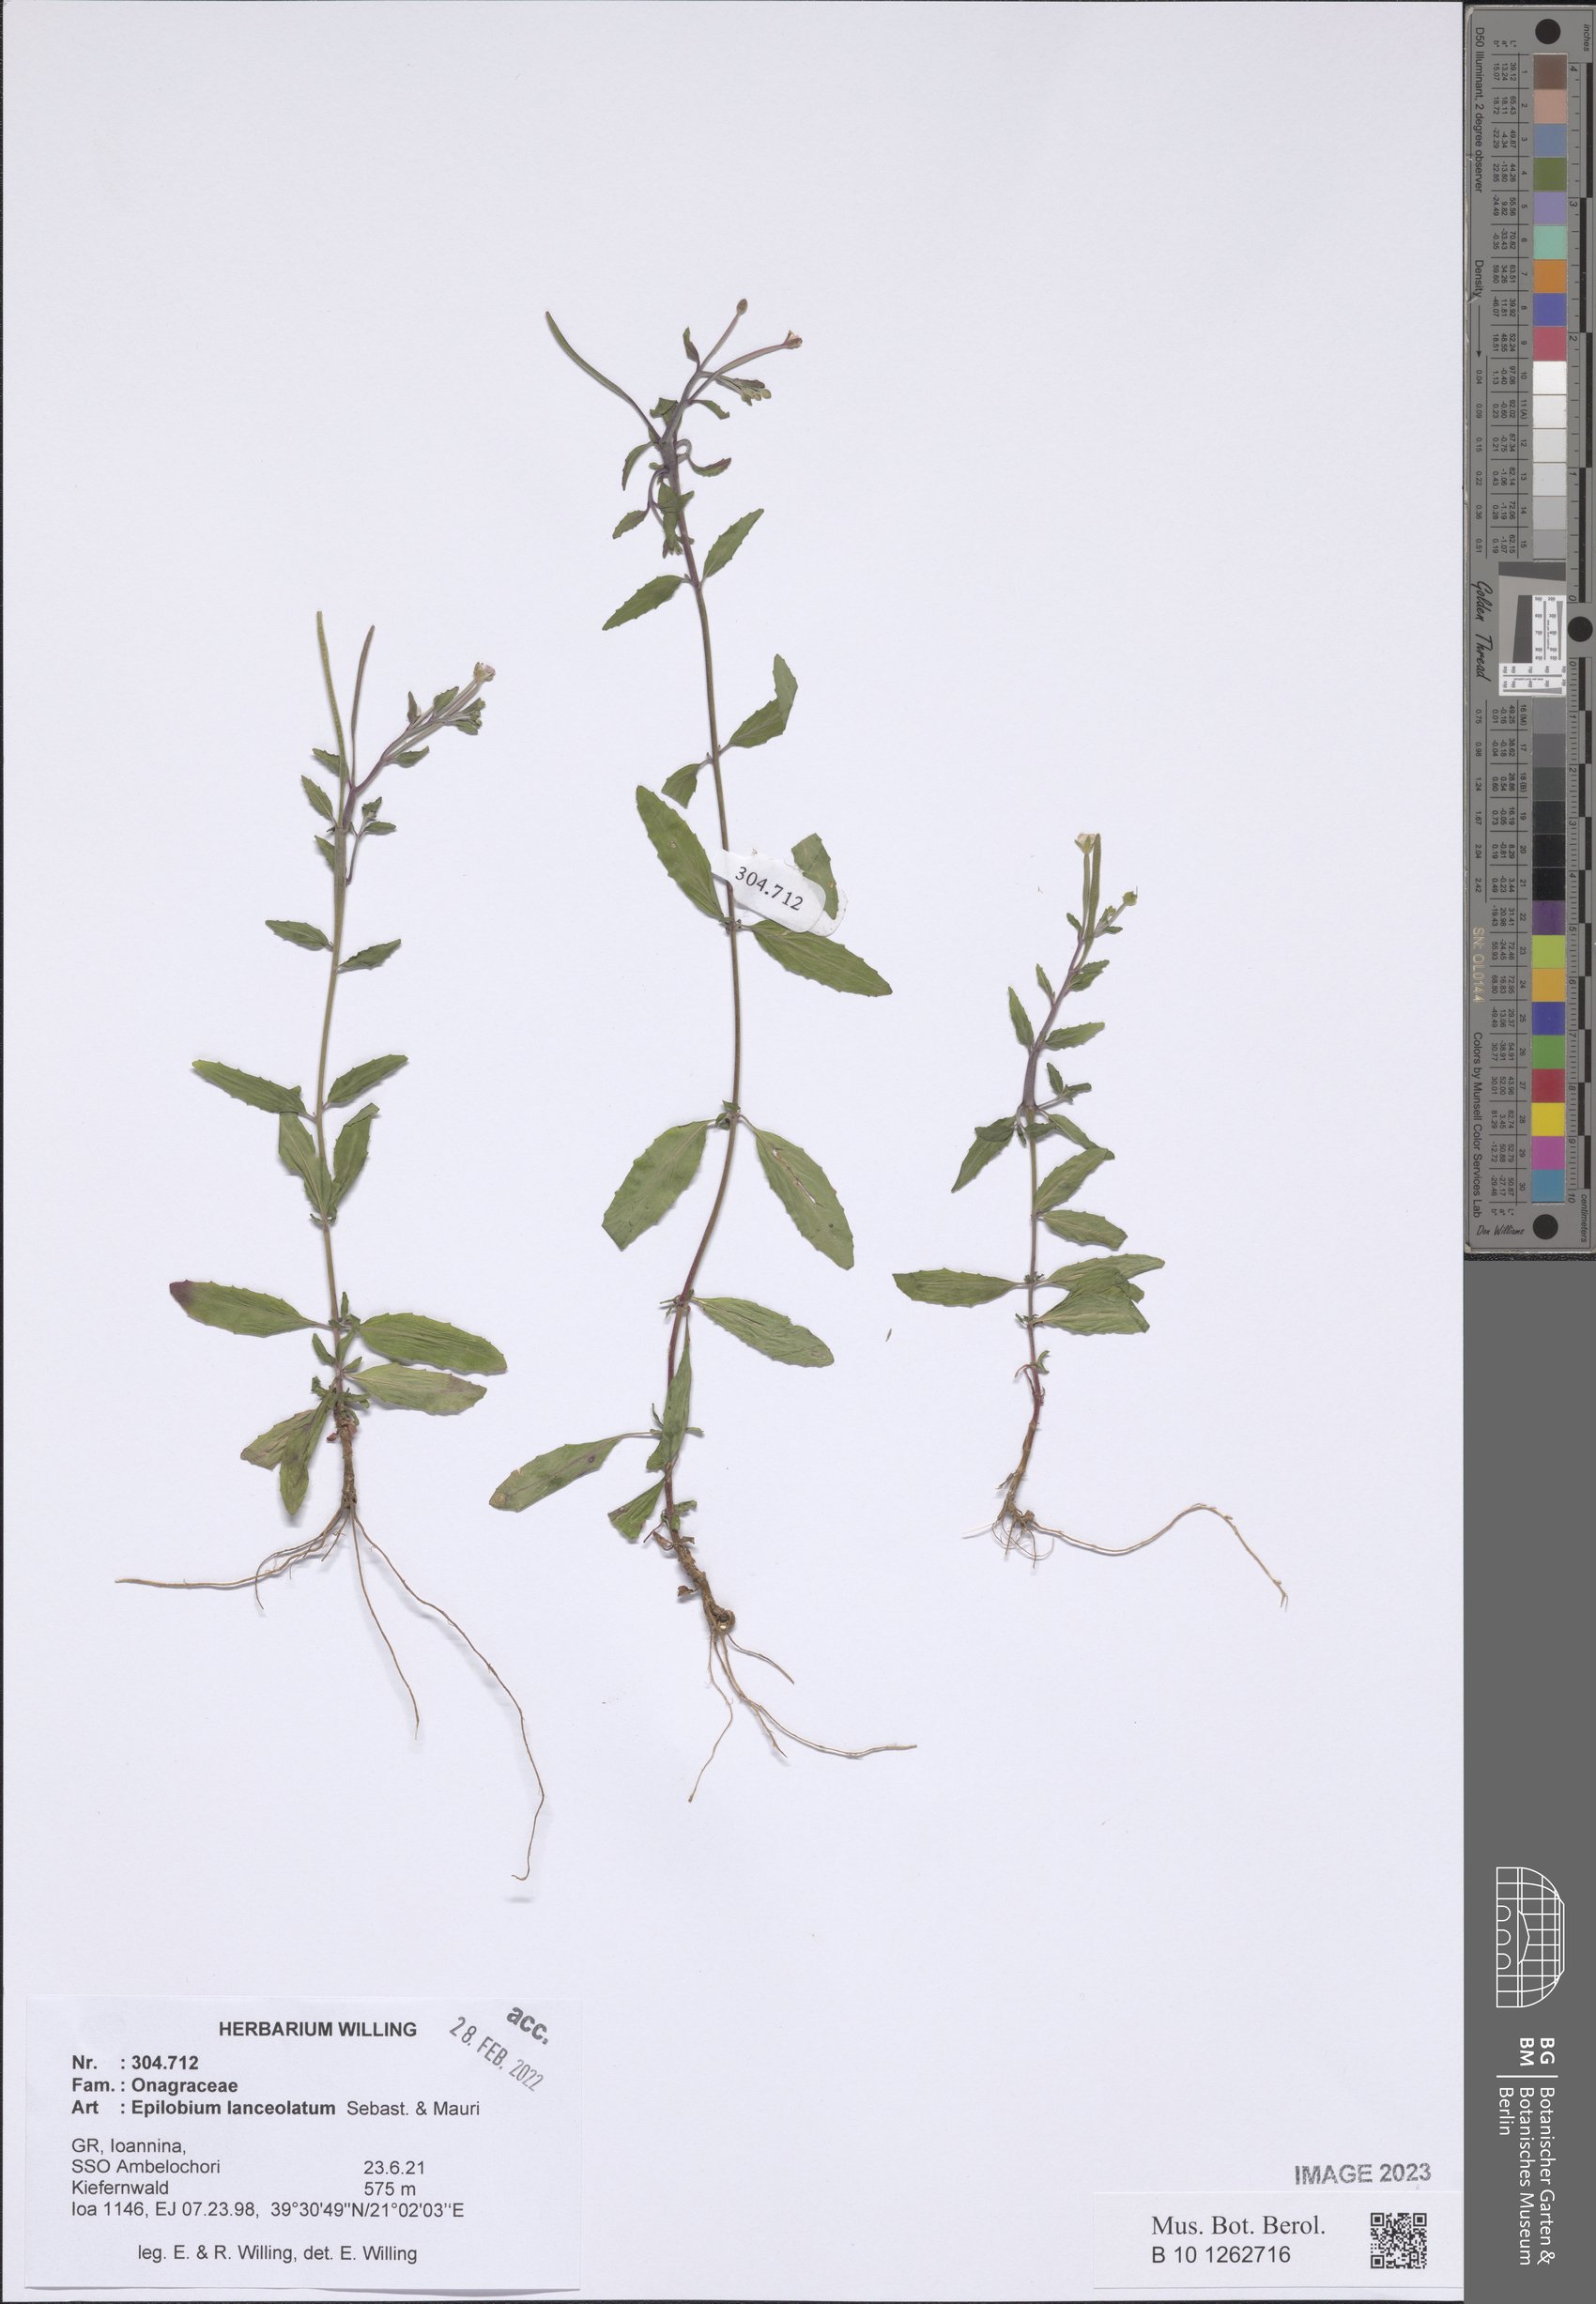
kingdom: Plantae
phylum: Tracheophyta
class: Magnoliopsida
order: Myrtales
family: Onagraceae
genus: Epilobium
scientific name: Epilobium lanceolatum
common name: Spear-leaved willowherb
